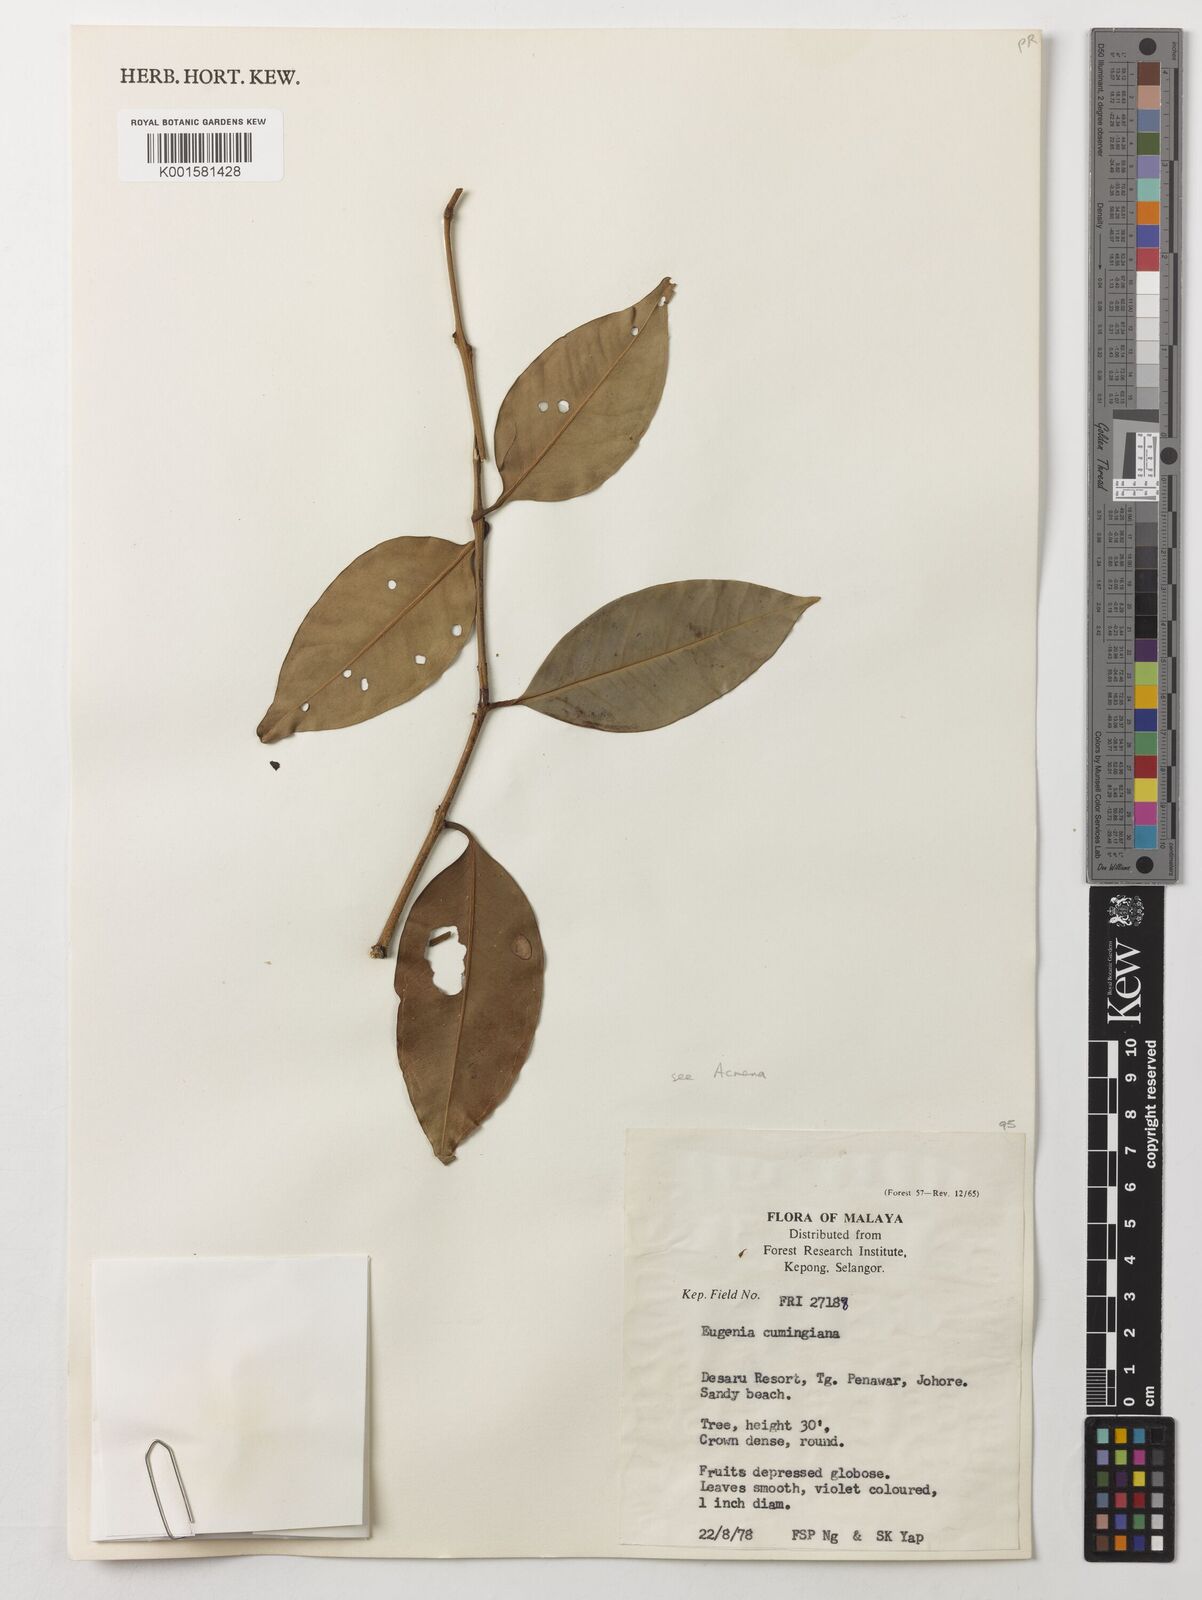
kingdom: Plantae
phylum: Tracheophyta
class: Magnoliopsida
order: Myrtales
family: Myrtaceae
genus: Syzygium
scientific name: Syzygium acuminatissimum
